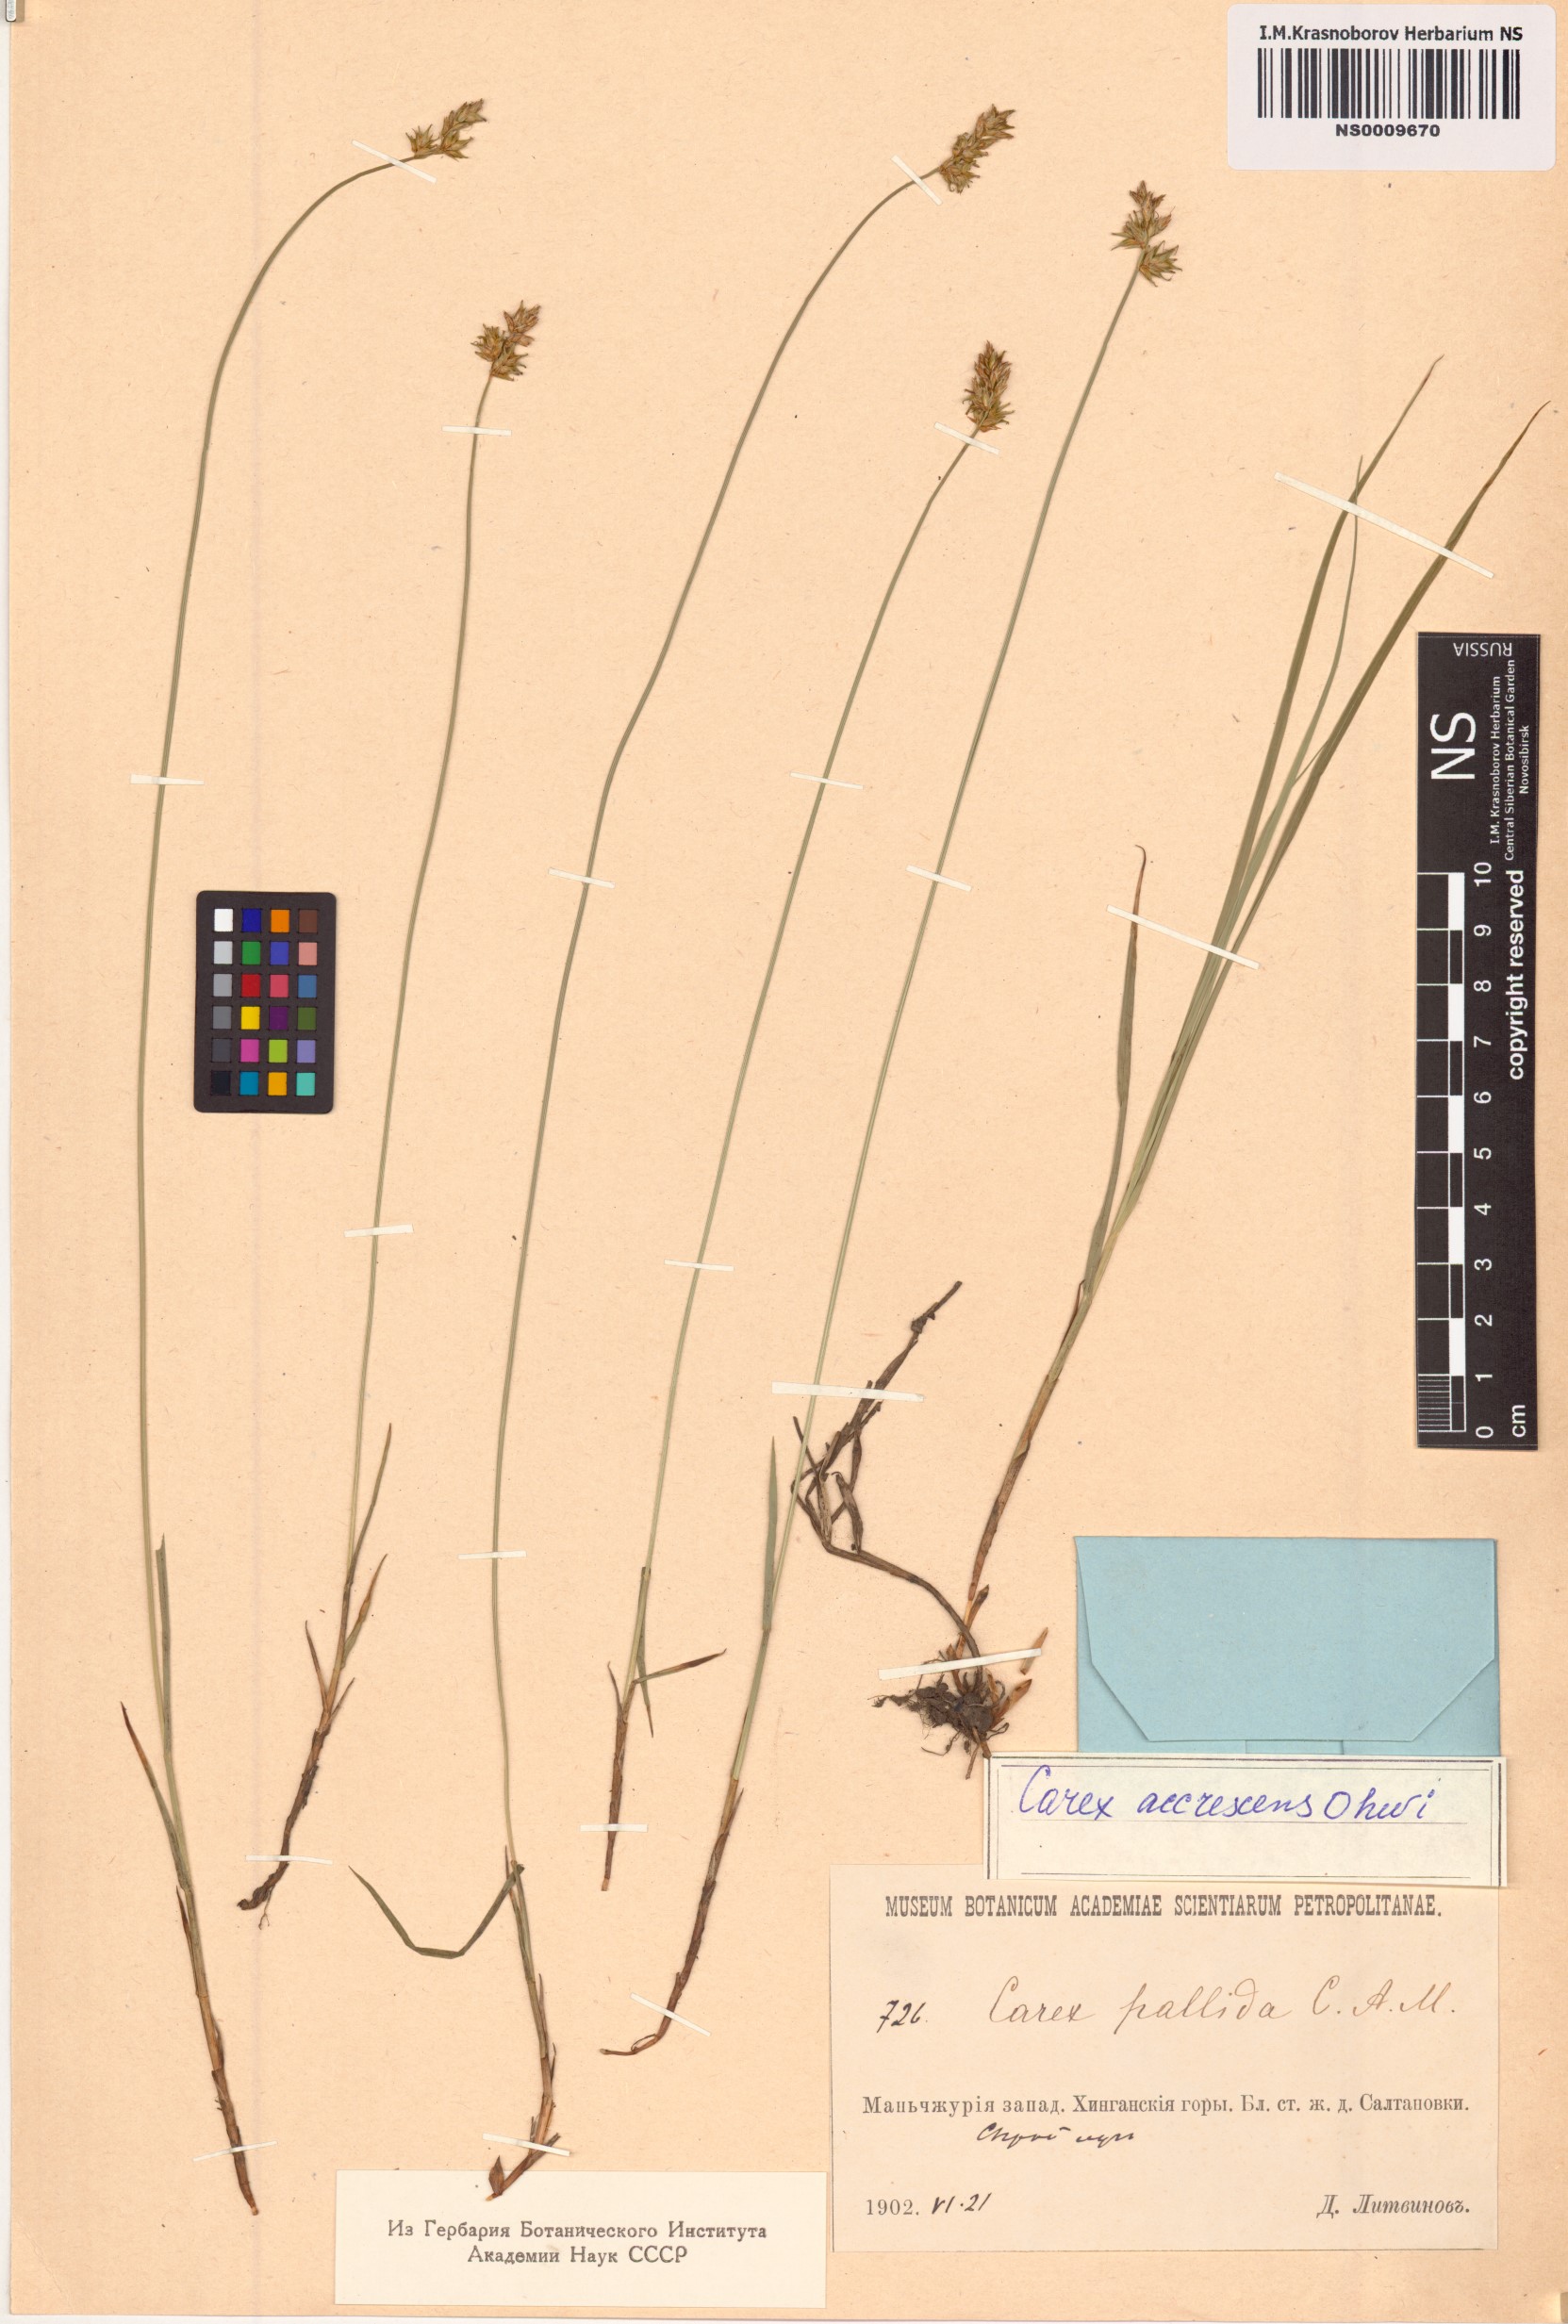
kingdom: Plantae
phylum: Tracheophyta
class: Liliopsida
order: Poales
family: Cyperaceae
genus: Carex
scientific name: Carex accrescens
